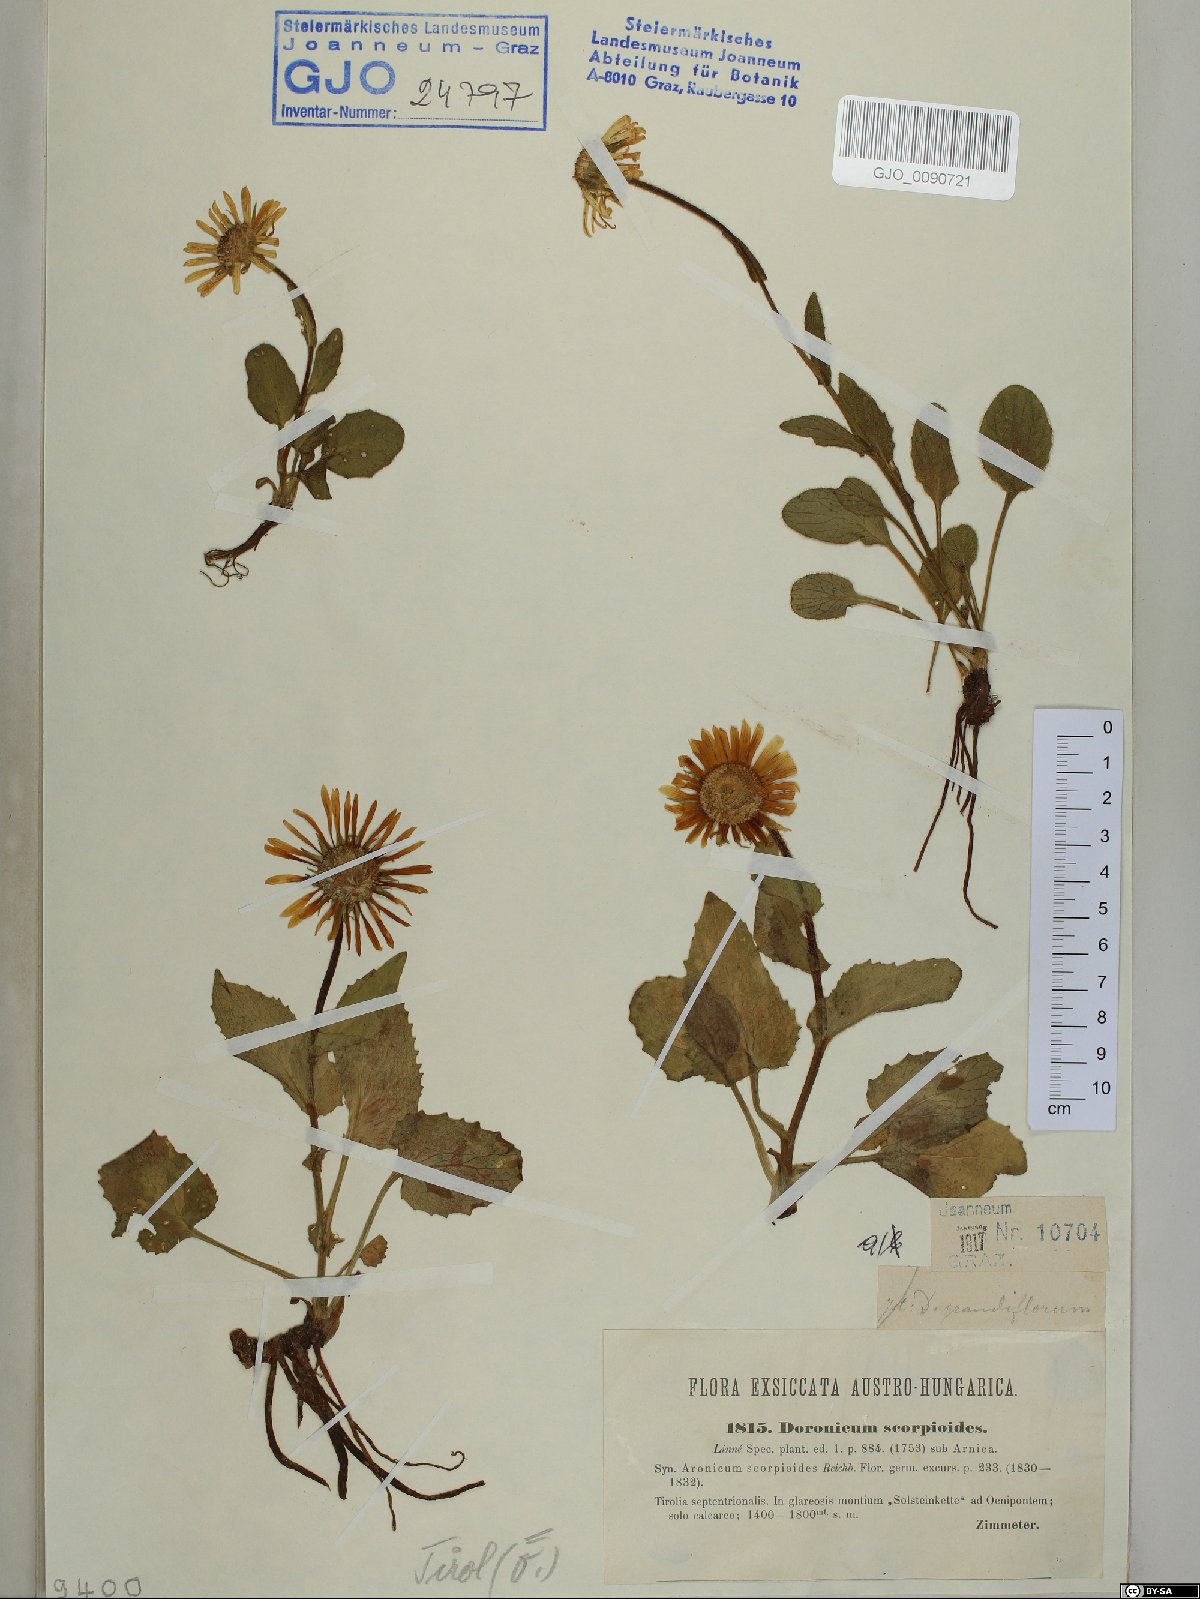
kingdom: Plantae
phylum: Tracheophyta
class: Magnoliopsida
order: Asterales
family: Asteraceae
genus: Doronicum
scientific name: Doronicum grandiflorum
